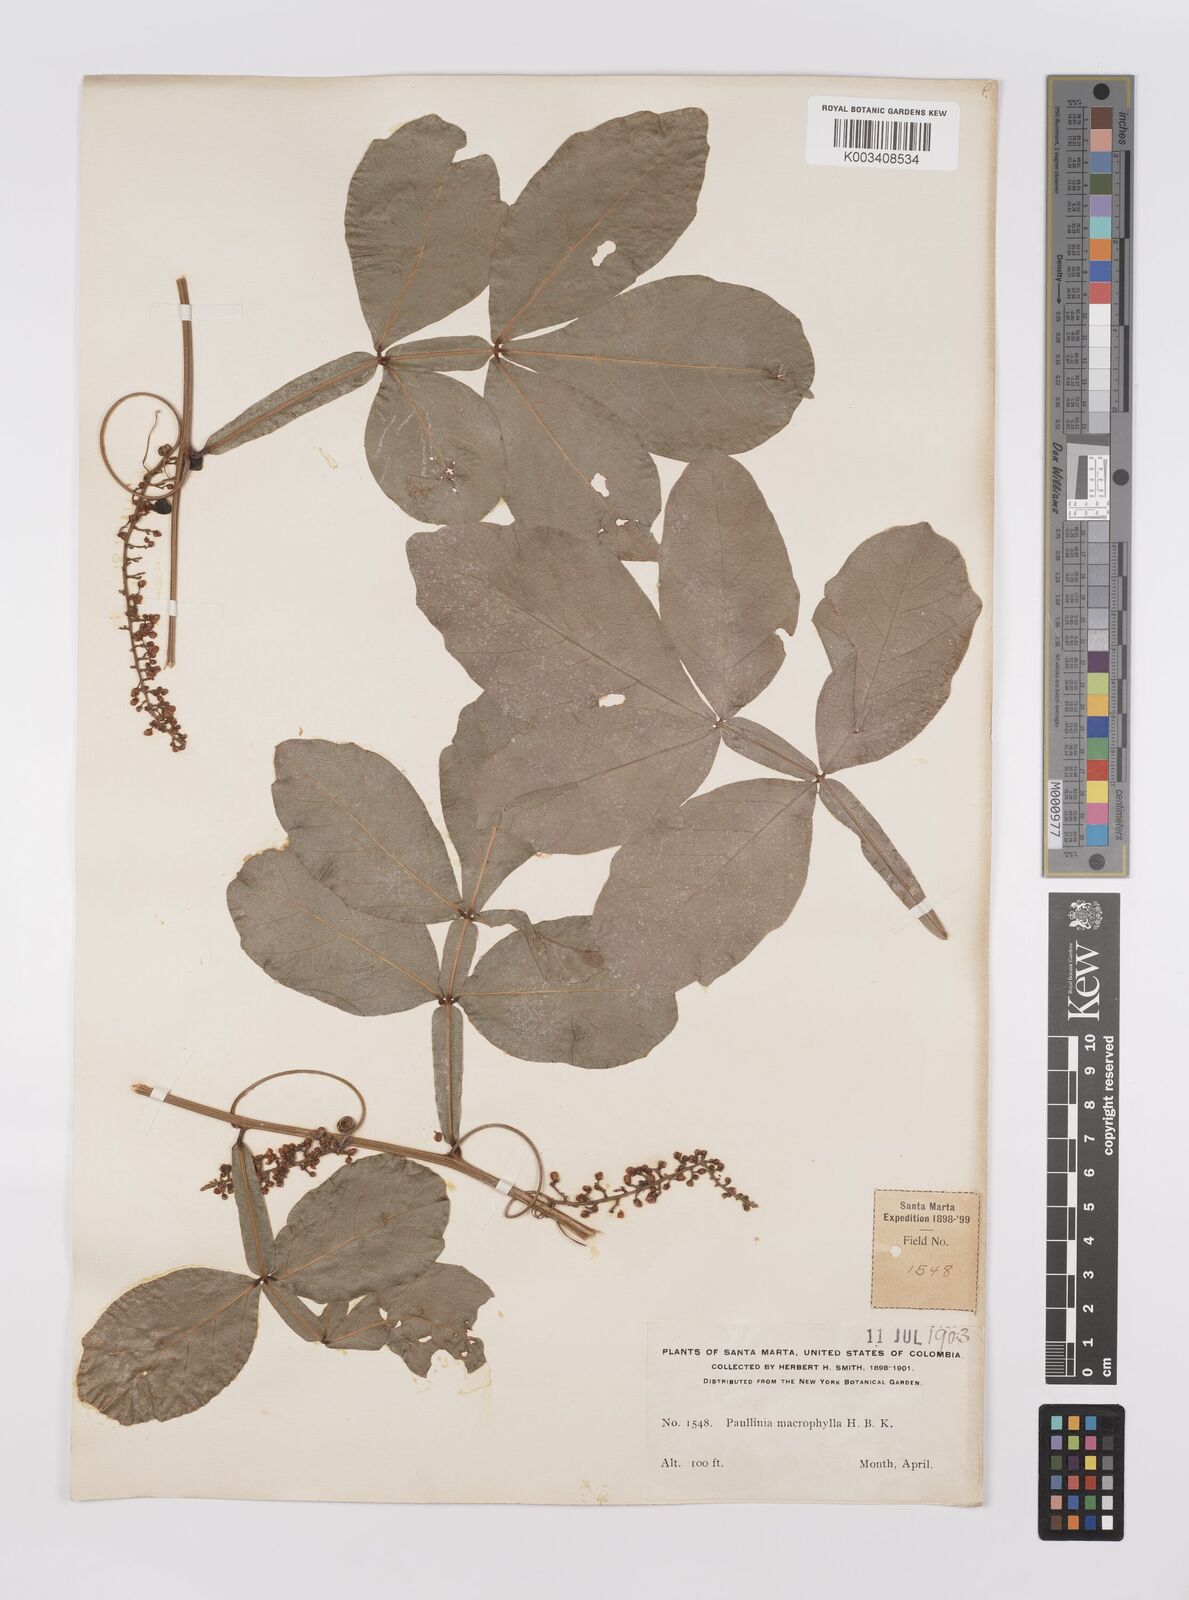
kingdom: Plantae
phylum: Tracheophyta
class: Magnoliopsida
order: Sapindales
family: Sapindaceae
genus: Paullinia
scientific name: Paullinia
